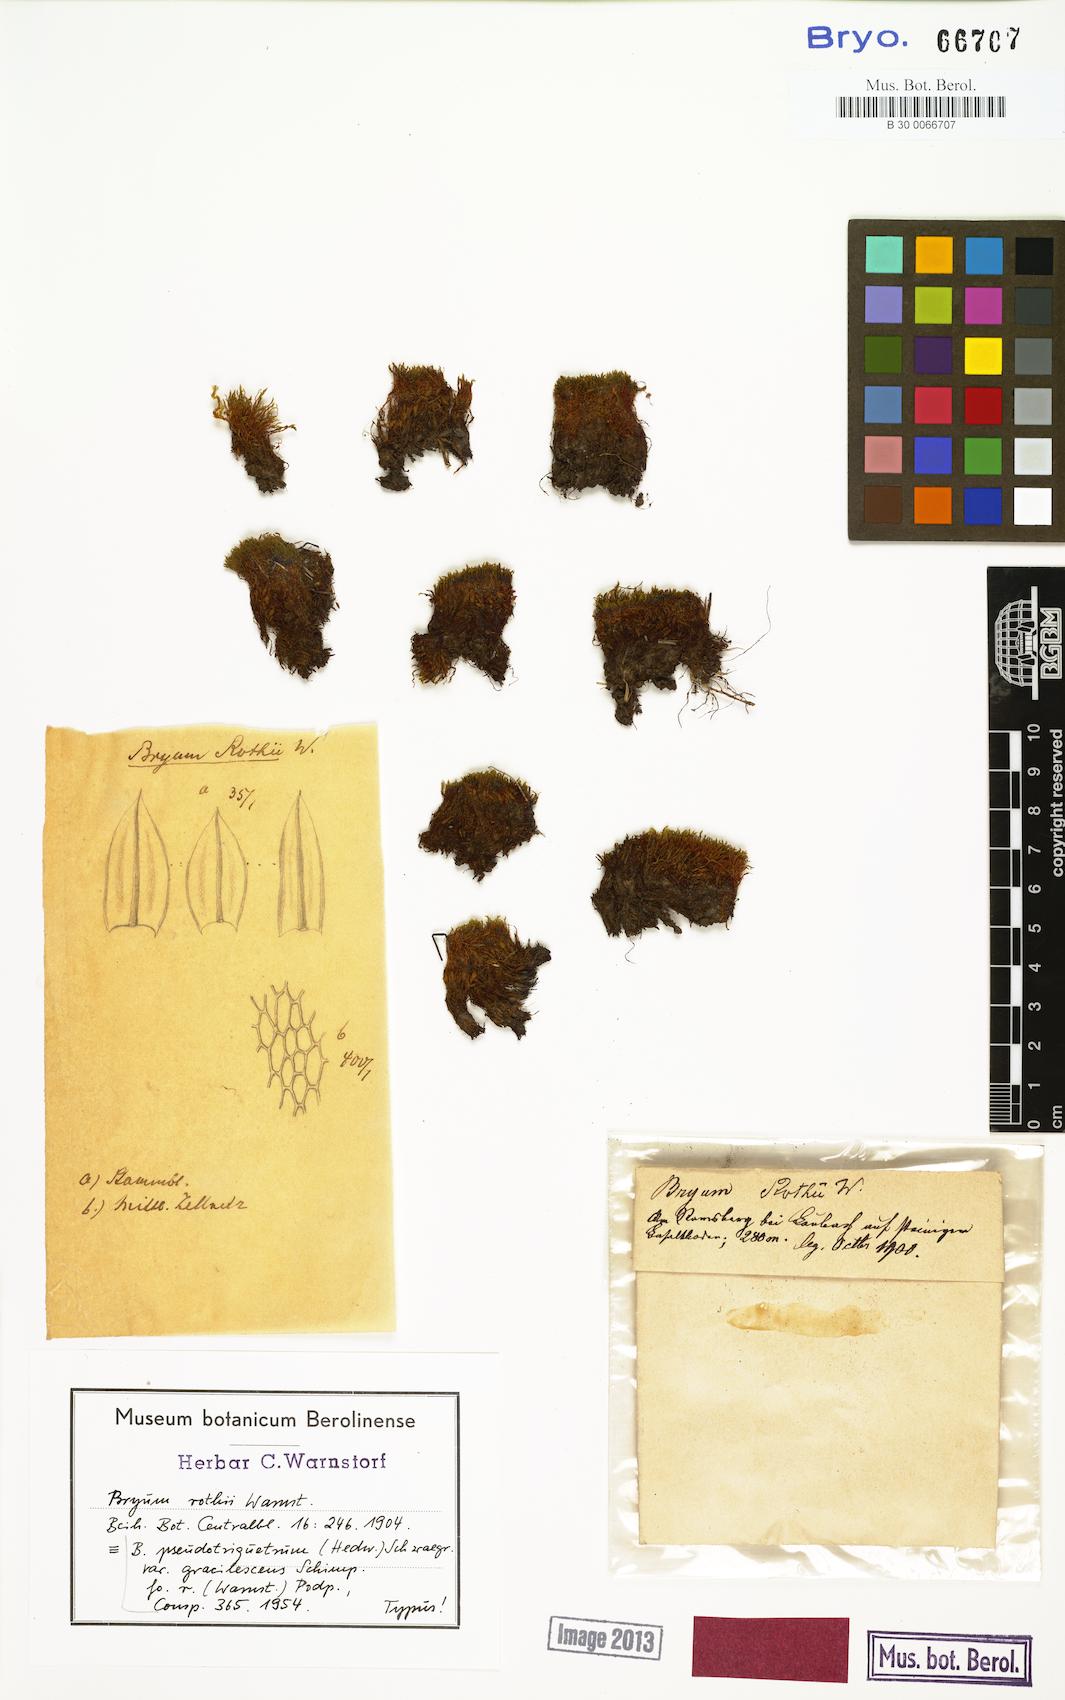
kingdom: Plantae
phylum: Bryophyta
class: Bryopsida
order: Bryales
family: Bryaceae
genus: Bryum
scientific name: Bryum
